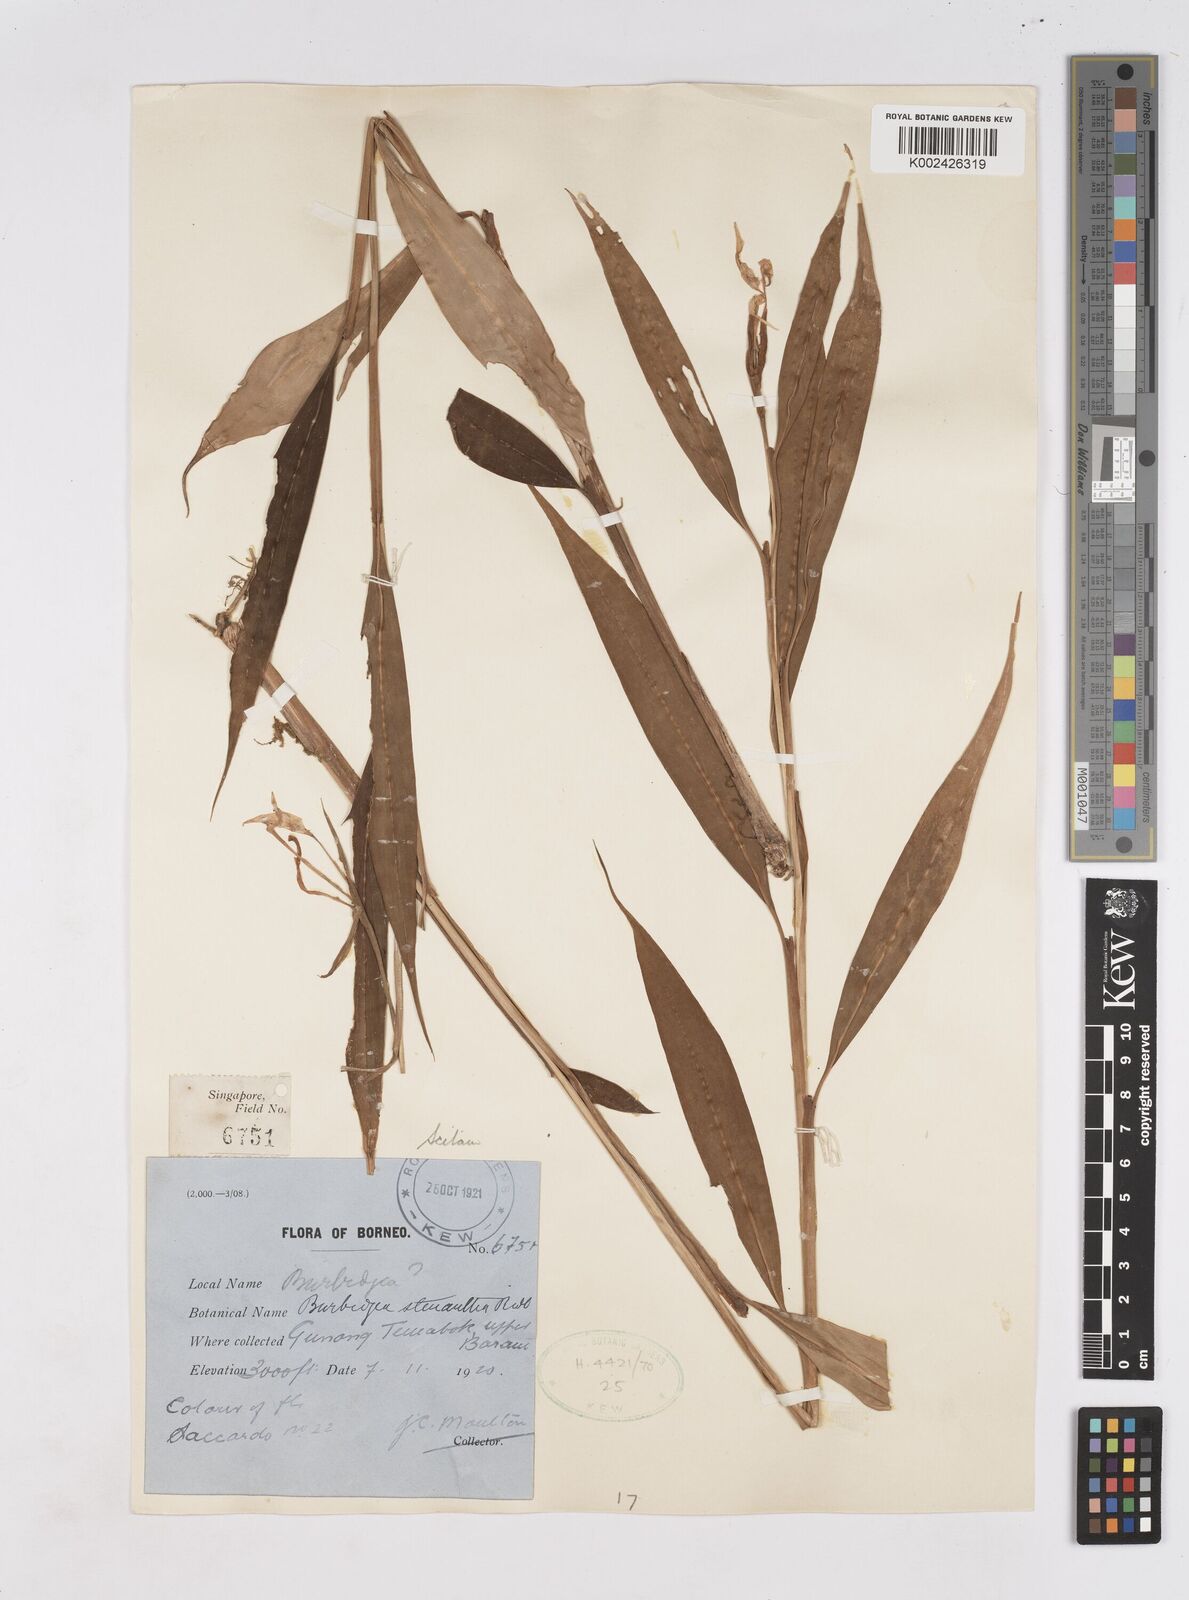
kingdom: Plantae
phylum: Tracheophyta
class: Liliopsida
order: Zingiberales
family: Zingiberaceae
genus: Burbidgea
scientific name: Burbidgea stenantha
